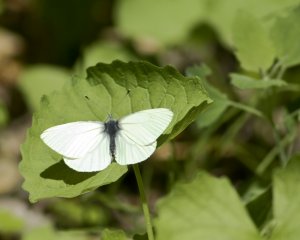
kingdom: Animalia
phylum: Arthropoda
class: Insecta
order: Lepidoptera
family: Pieridae
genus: Pieris
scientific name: Pieris oleracea
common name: Mustard White
